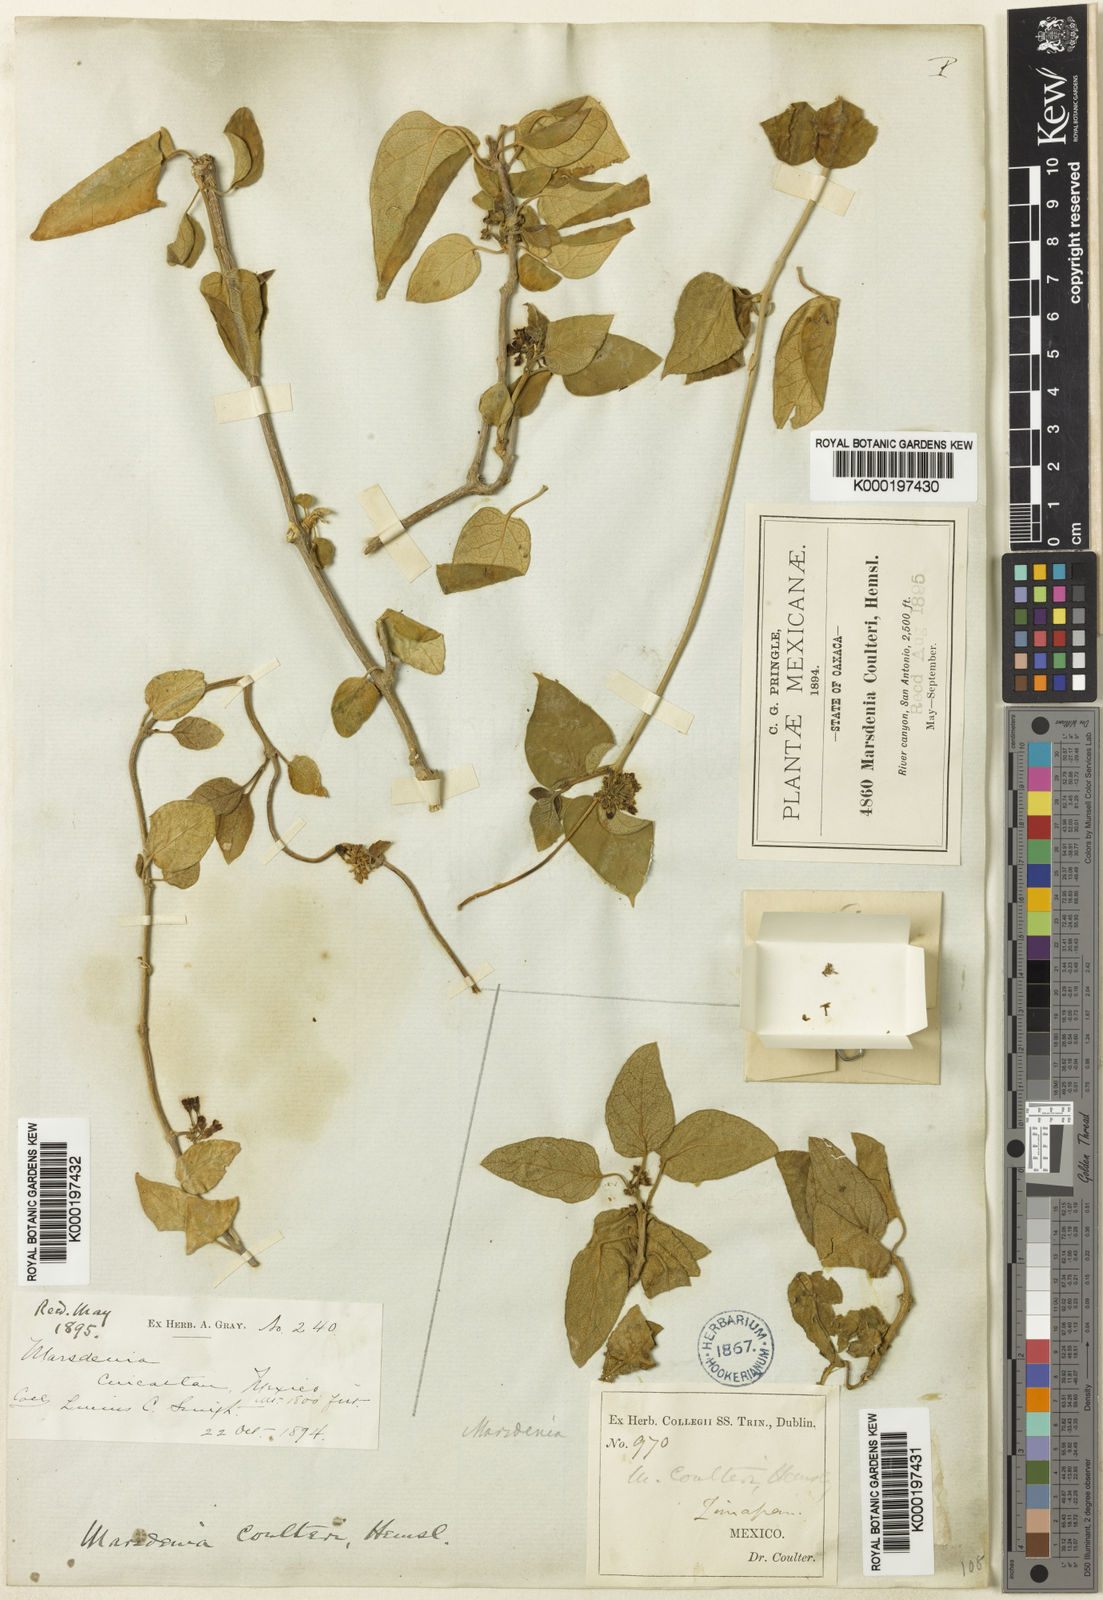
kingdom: Plantae
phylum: Tracheophyta
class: Magnoliopsida
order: Gentianales
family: Apocynaceae
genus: Ruehssia
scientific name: Ruehssia coulteri
